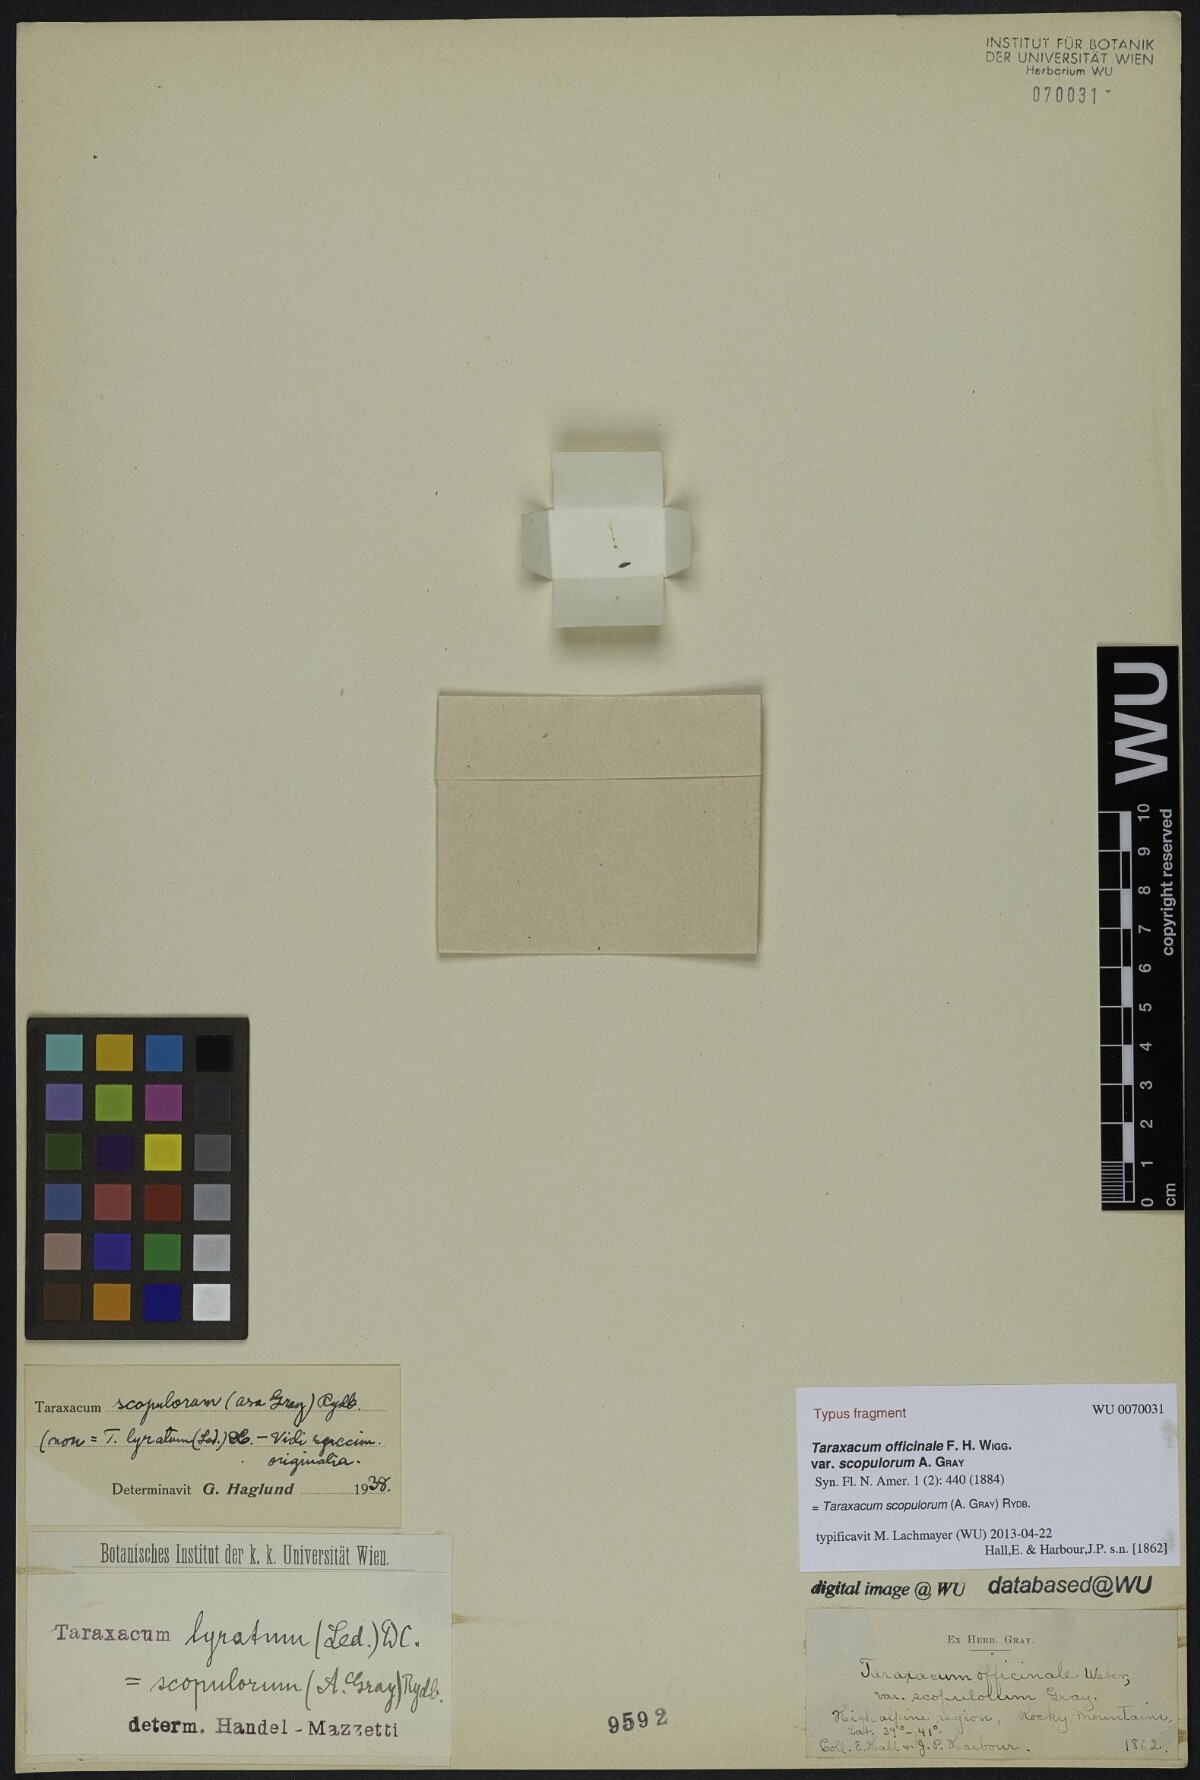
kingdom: Plantae
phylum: Tracheophyta
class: Magnoliopsida
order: Asterales
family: Asteraceae
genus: Taraxacum
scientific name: Taraxacum scopulorum
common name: Alpine dandelion
